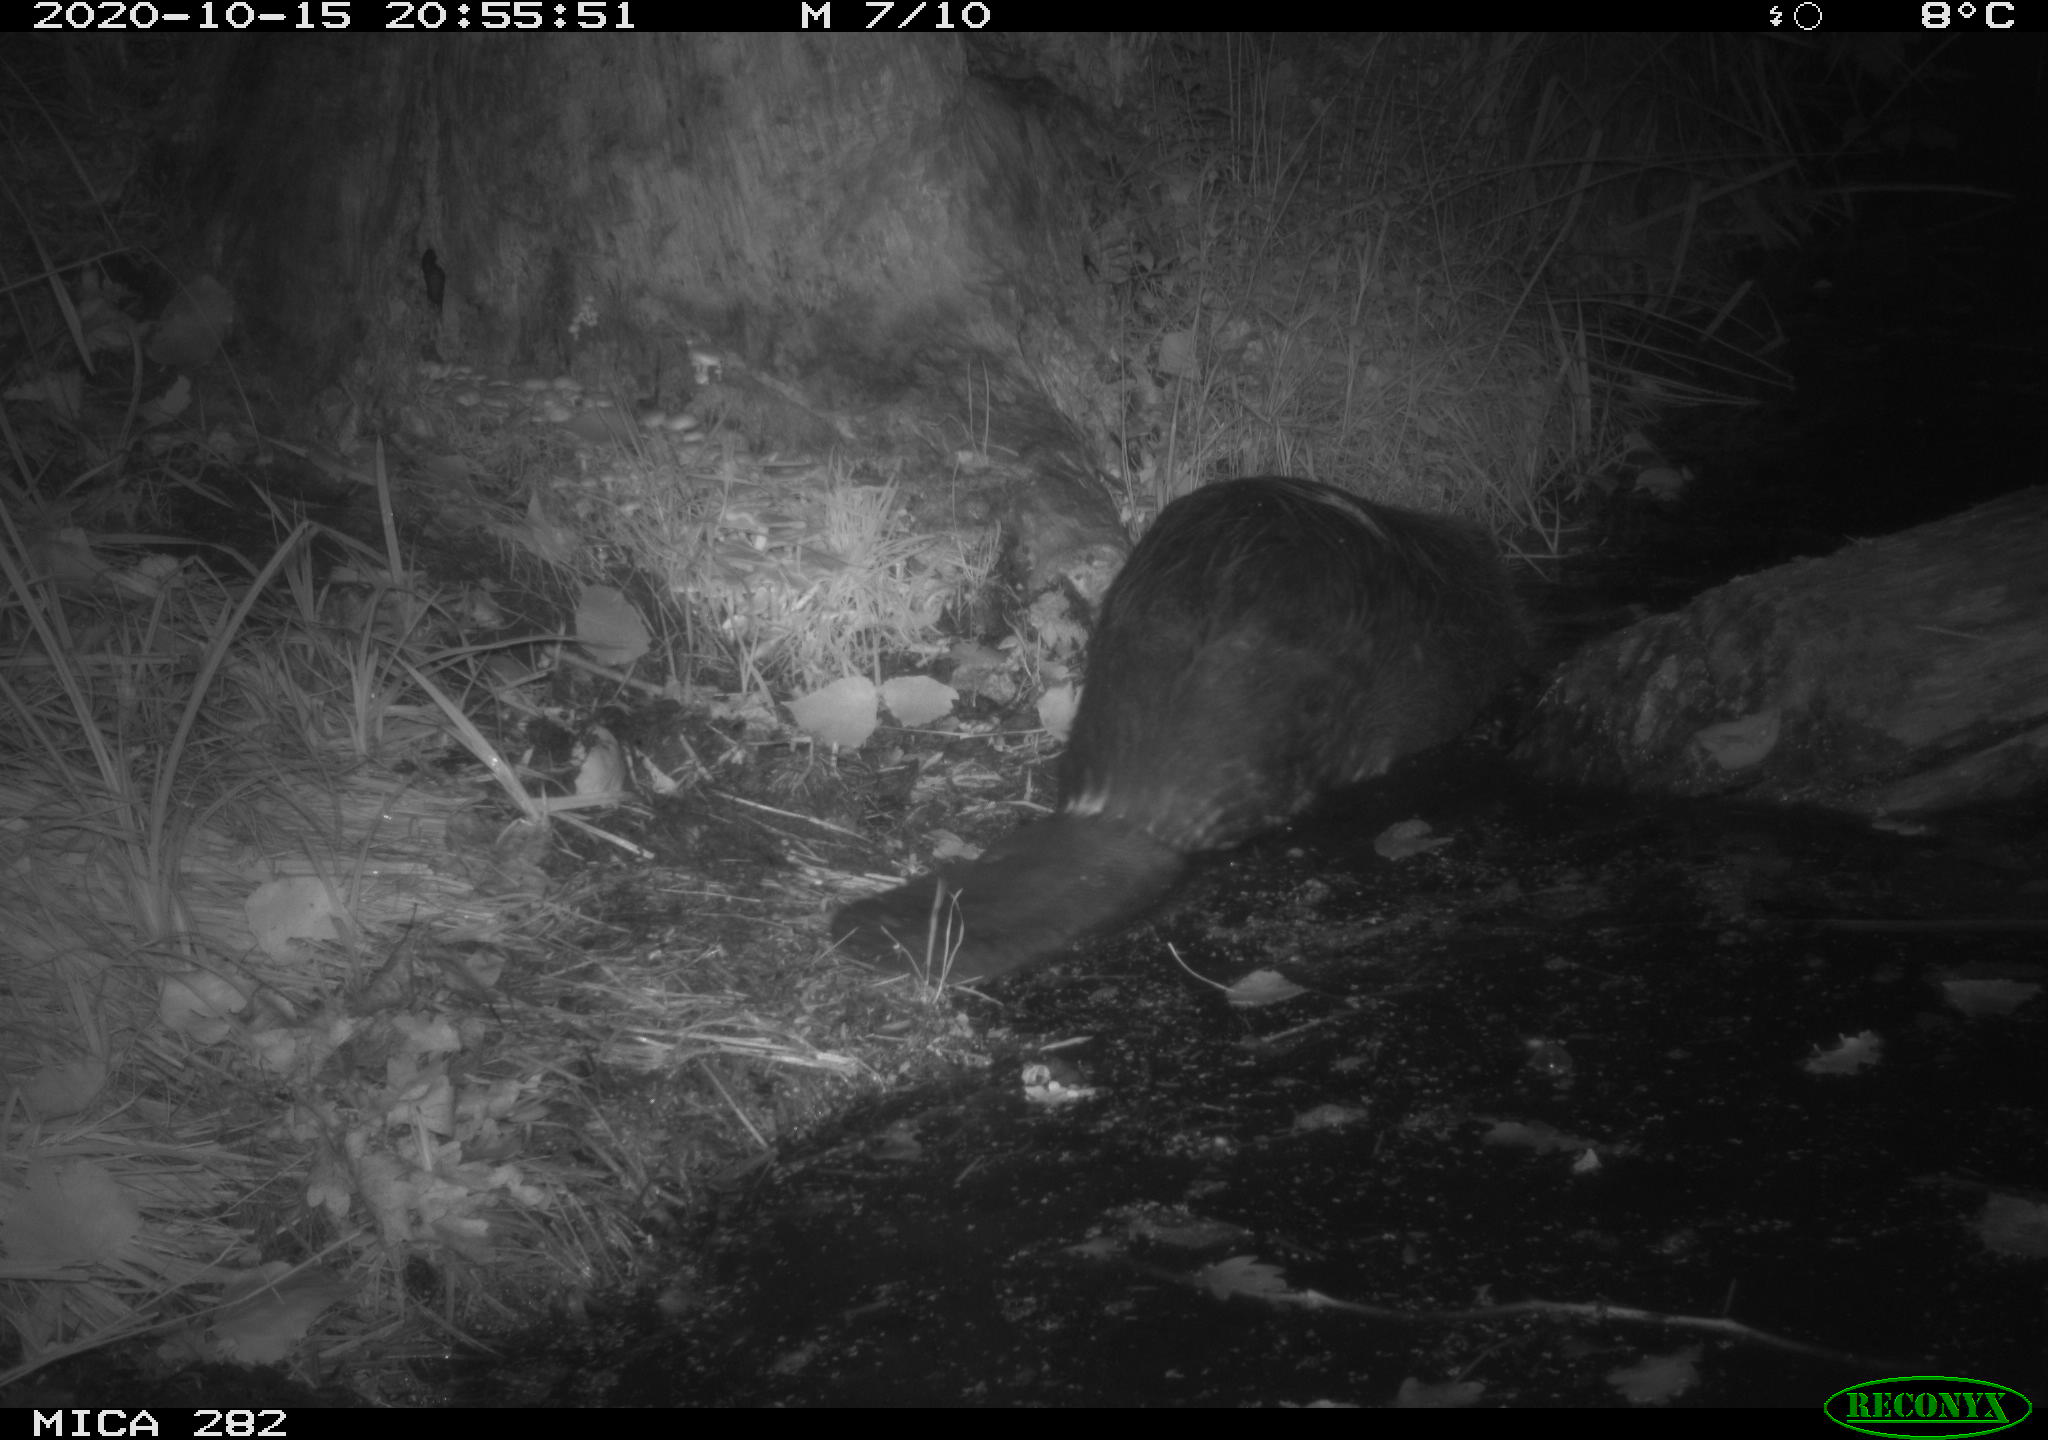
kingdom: Animalia
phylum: Chordata
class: Mammalia
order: Rodentia
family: Castoridae
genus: Castor
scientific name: Castor fiber
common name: Eurasian beaver
